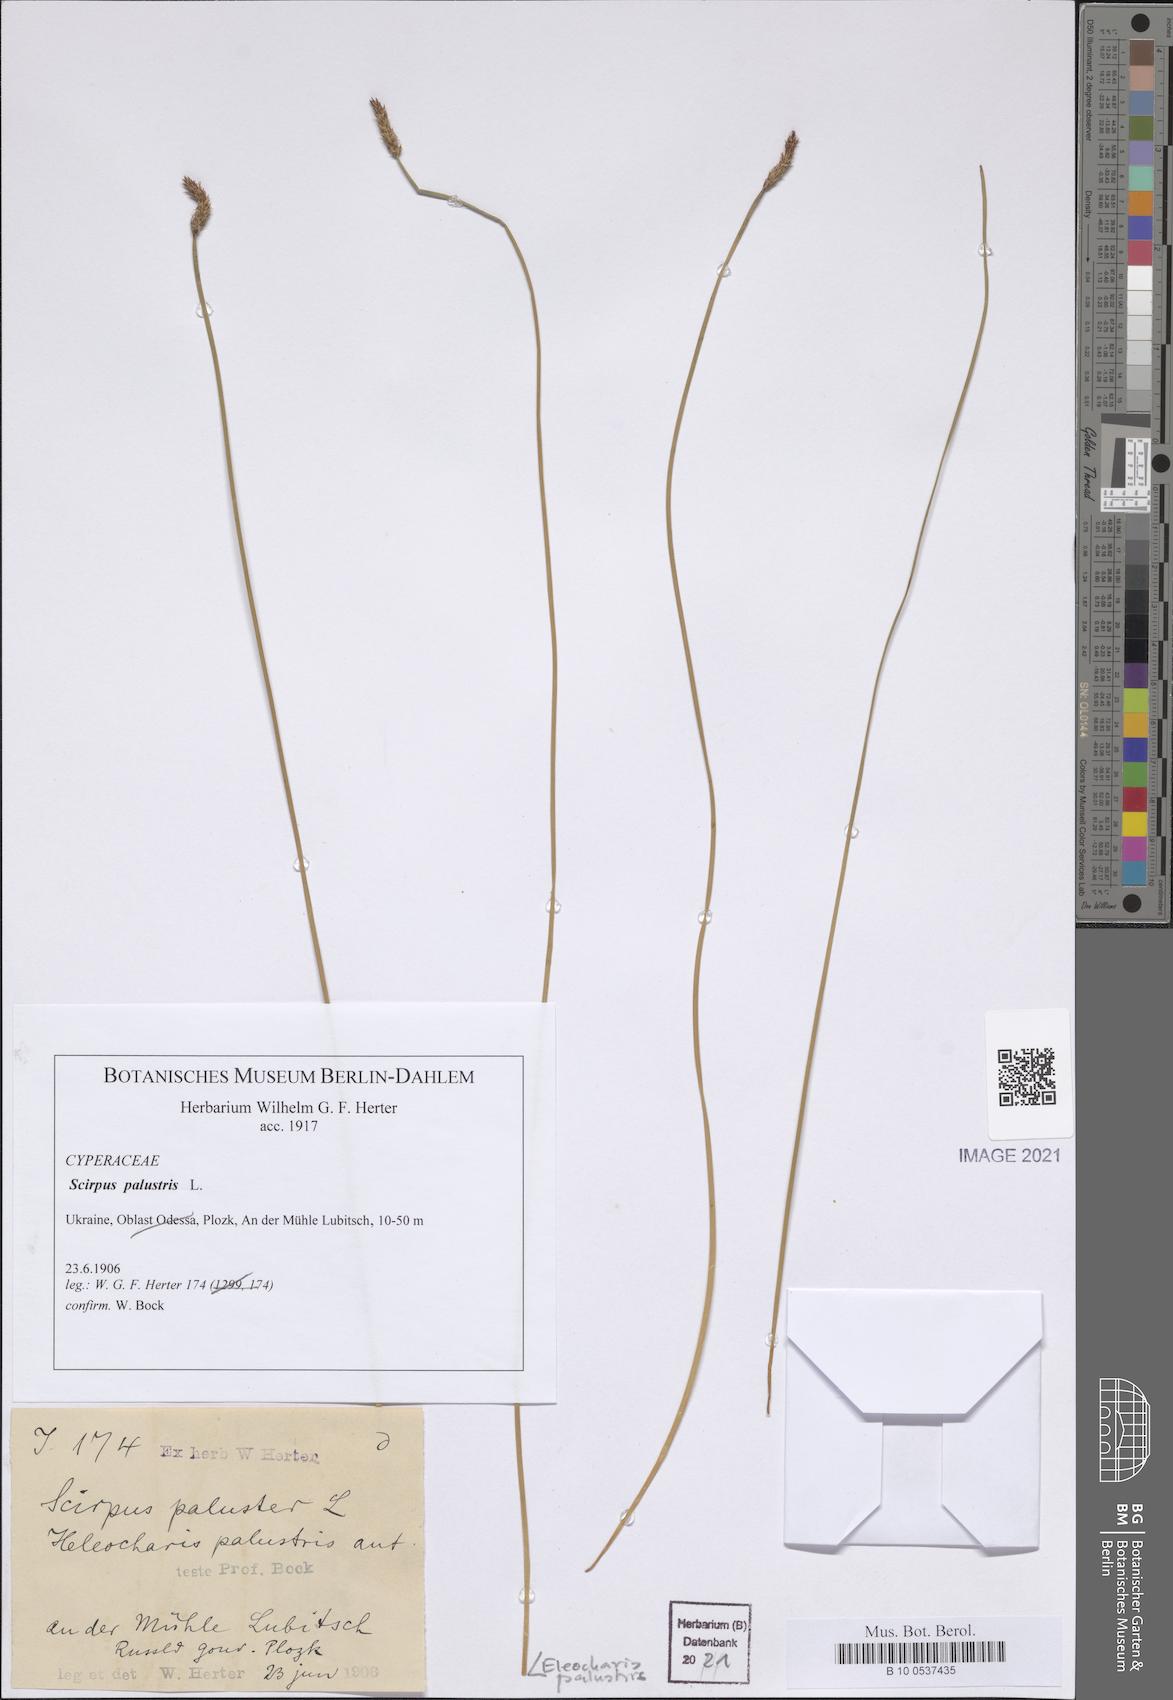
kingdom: Plantae
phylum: Tracheophyta
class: Liliopsida
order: Poales
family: Cyperaceae
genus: Eleocharis
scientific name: Eleocharis palustris
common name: Common spike-rush
